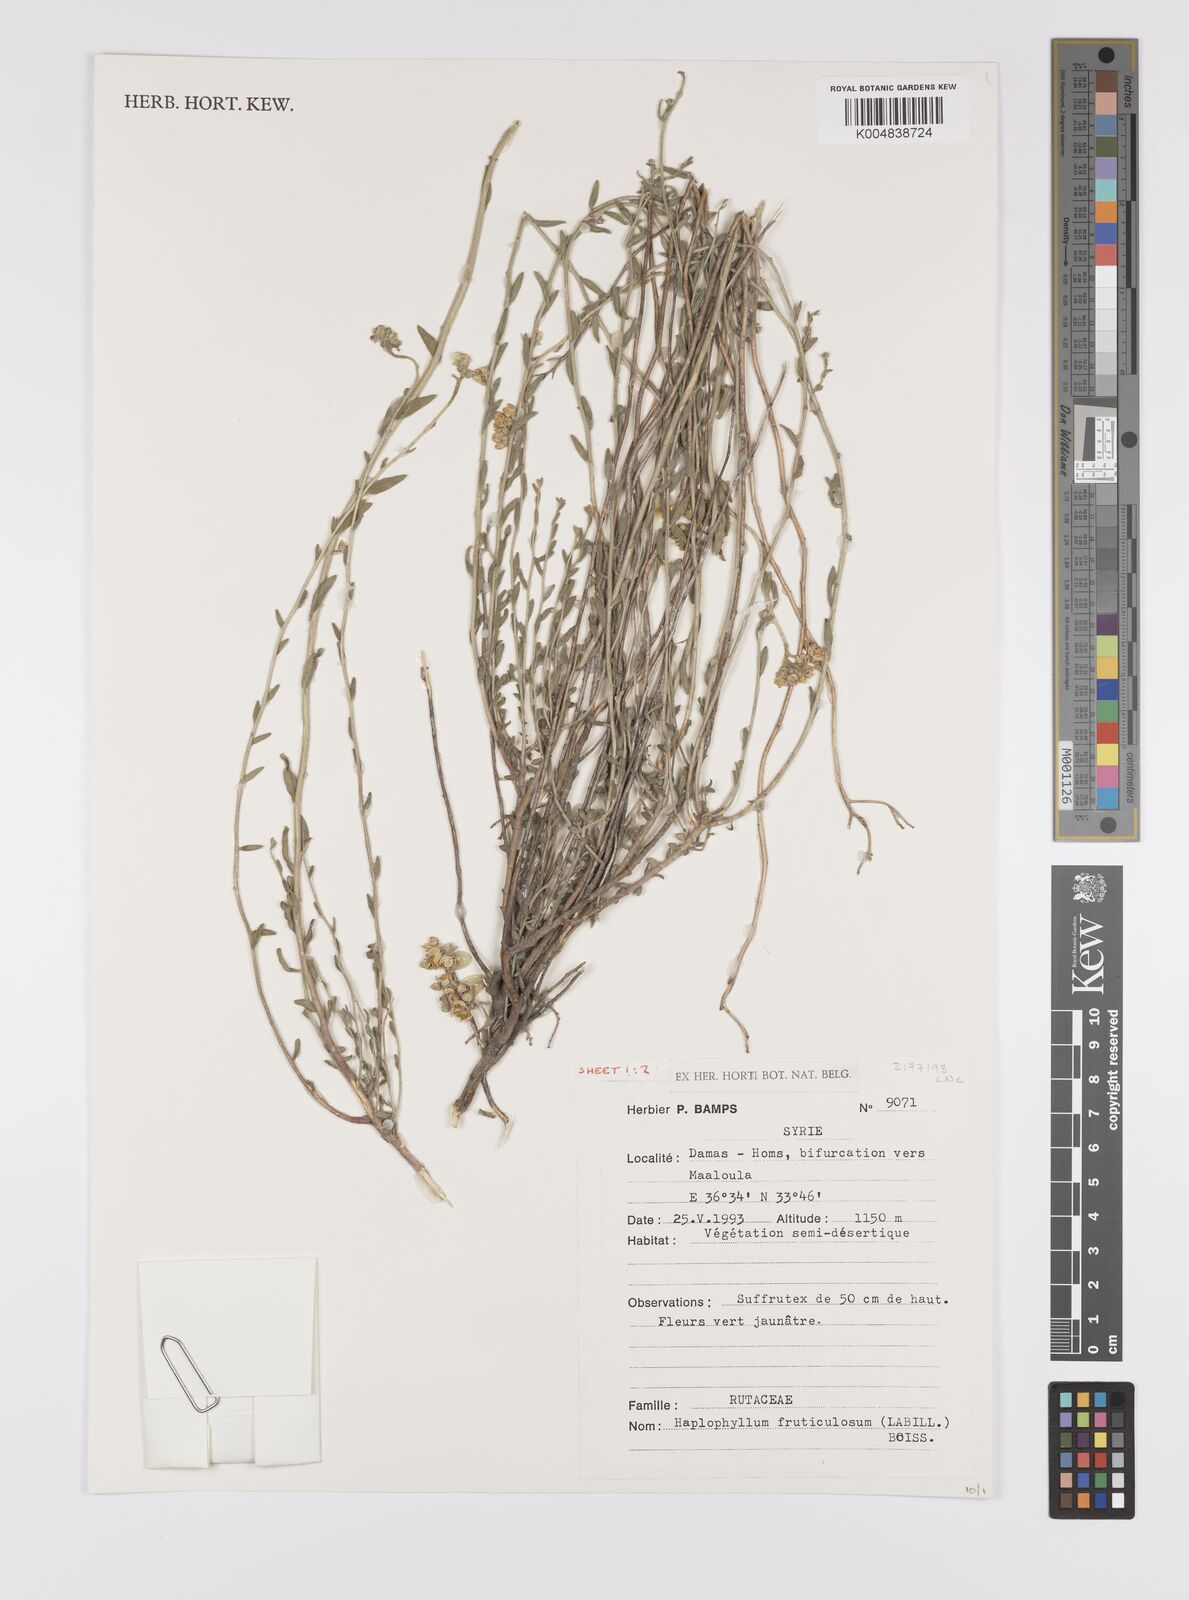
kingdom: Plantae
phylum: Tracheophyta
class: Magnoliopsida
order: Sapindales
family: Rutaceae
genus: Haplophyllum
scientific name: Haplophyllum fruticulosum
